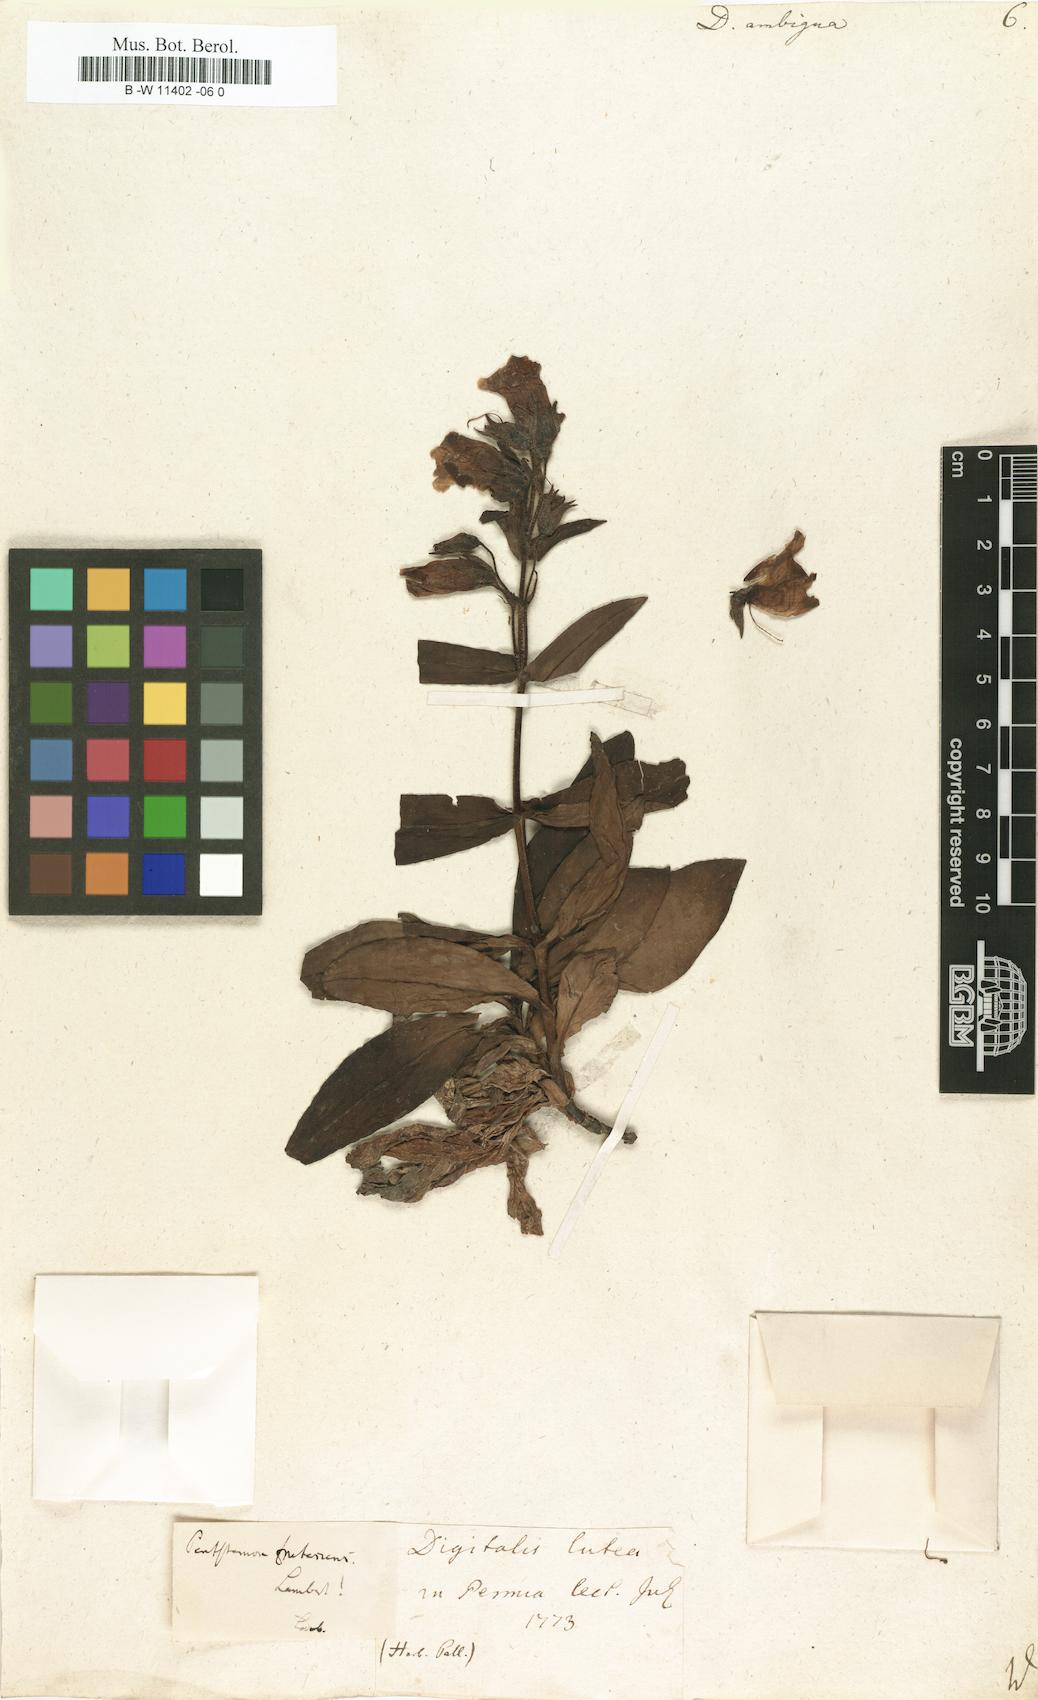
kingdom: Plantae
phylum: Tracheophyta
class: Magnoliopsida
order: Lamiales
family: Plantaginaceae
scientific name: Plantaginaceae
